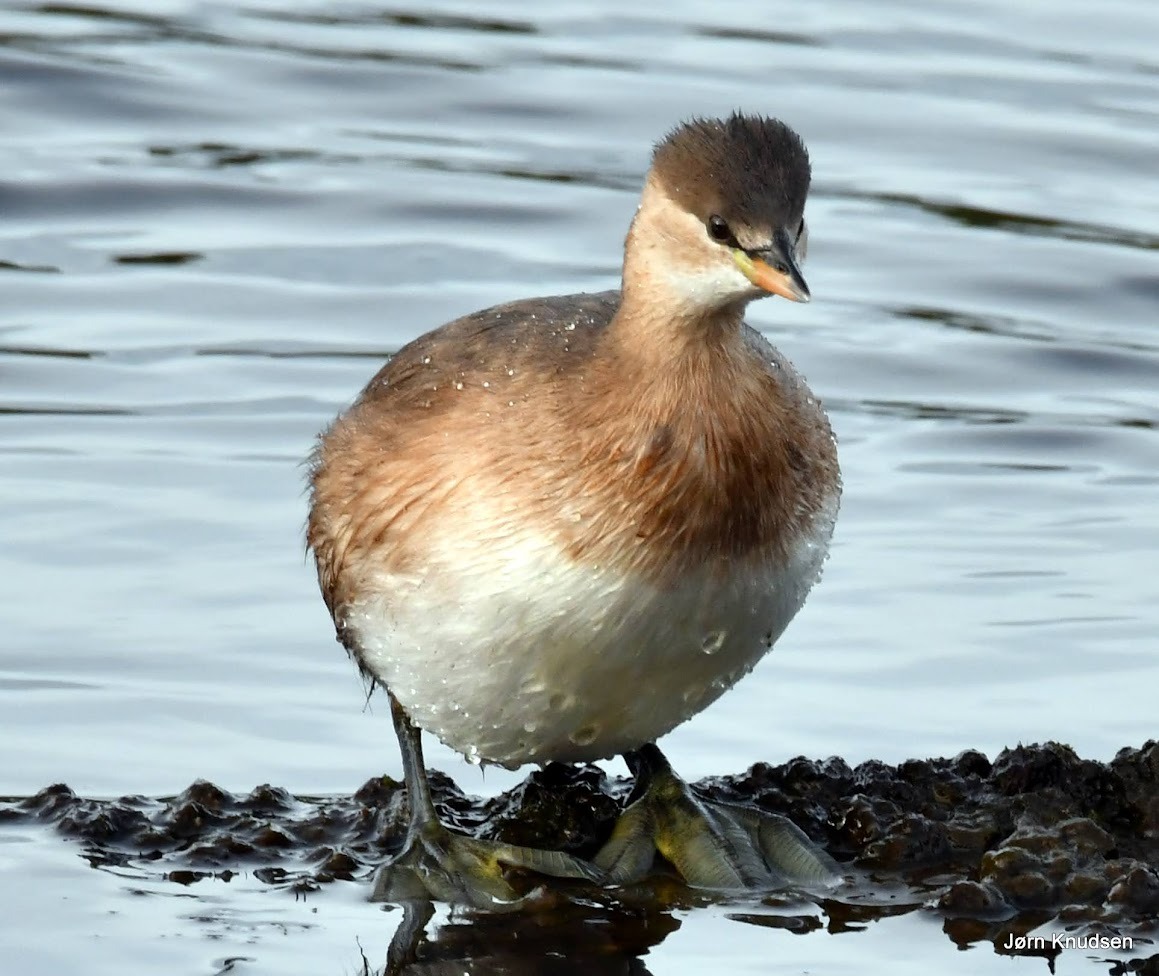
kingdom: Animalia
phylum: Chordata
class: Aves
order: Podicipediformes
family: Podicipedidae
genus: Tachybaptus
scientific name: Tachybaptus ruficollis
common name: Lille lappedykker
